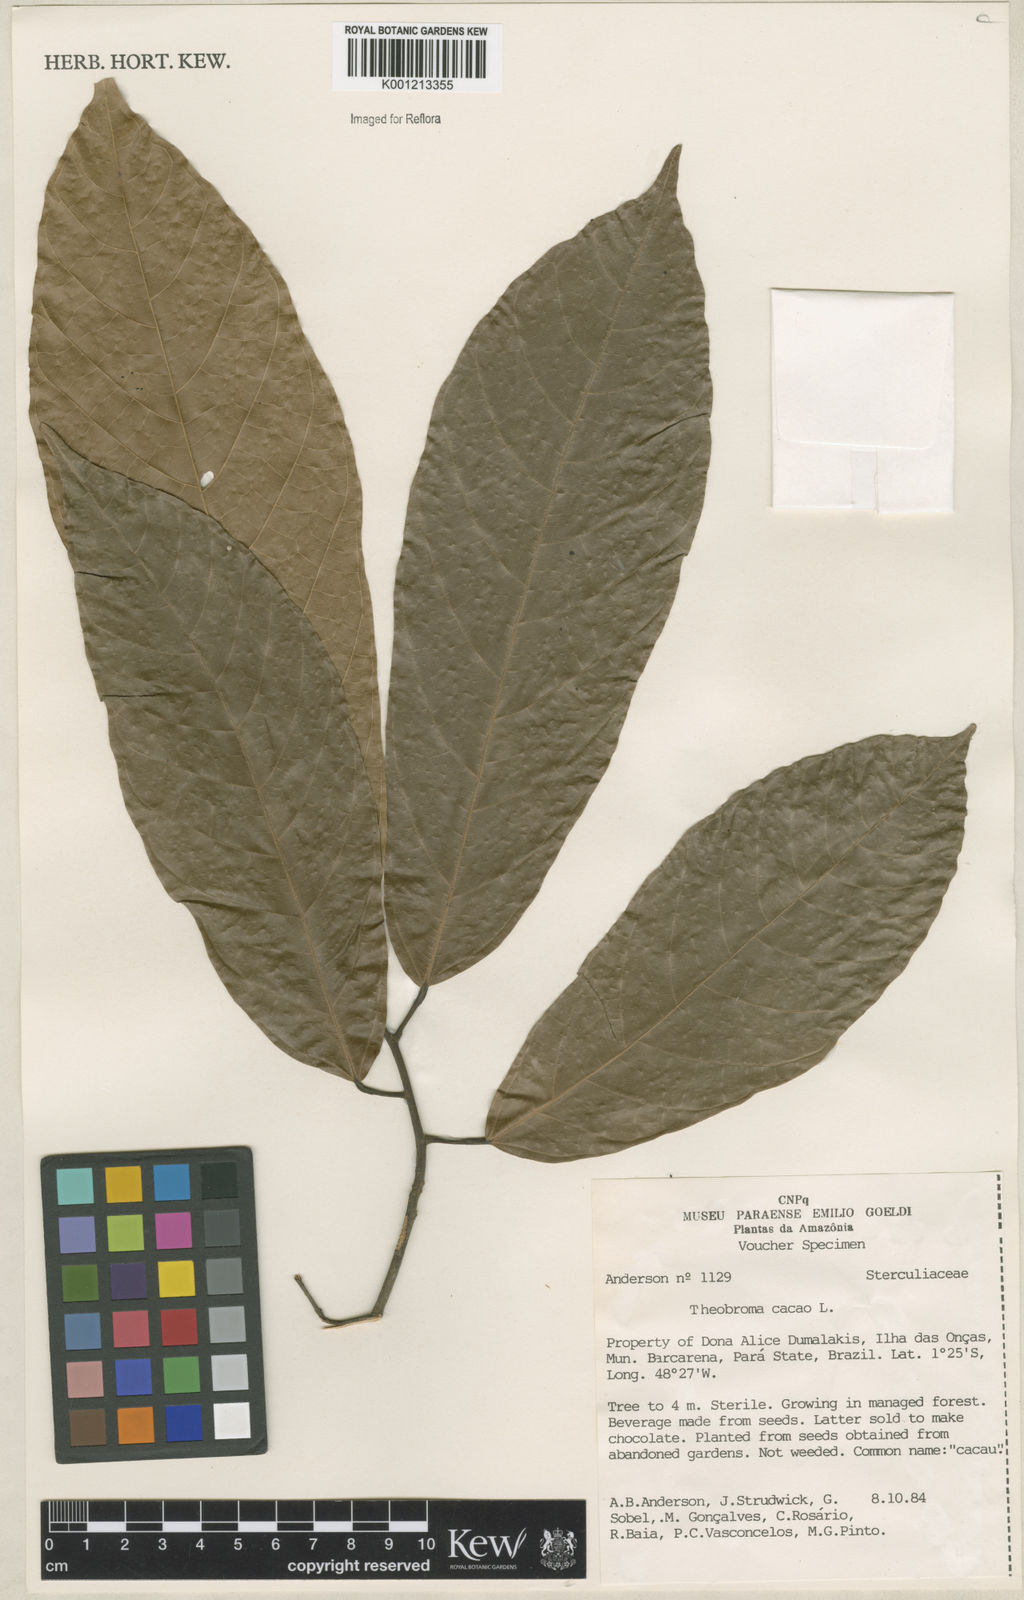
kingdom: Plantae
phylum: Tracheophyta
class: Magnoliopsida
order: Malvales
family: Malvaceae
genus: Theobroma
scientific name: Theobroma cacao
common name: Cocoa
